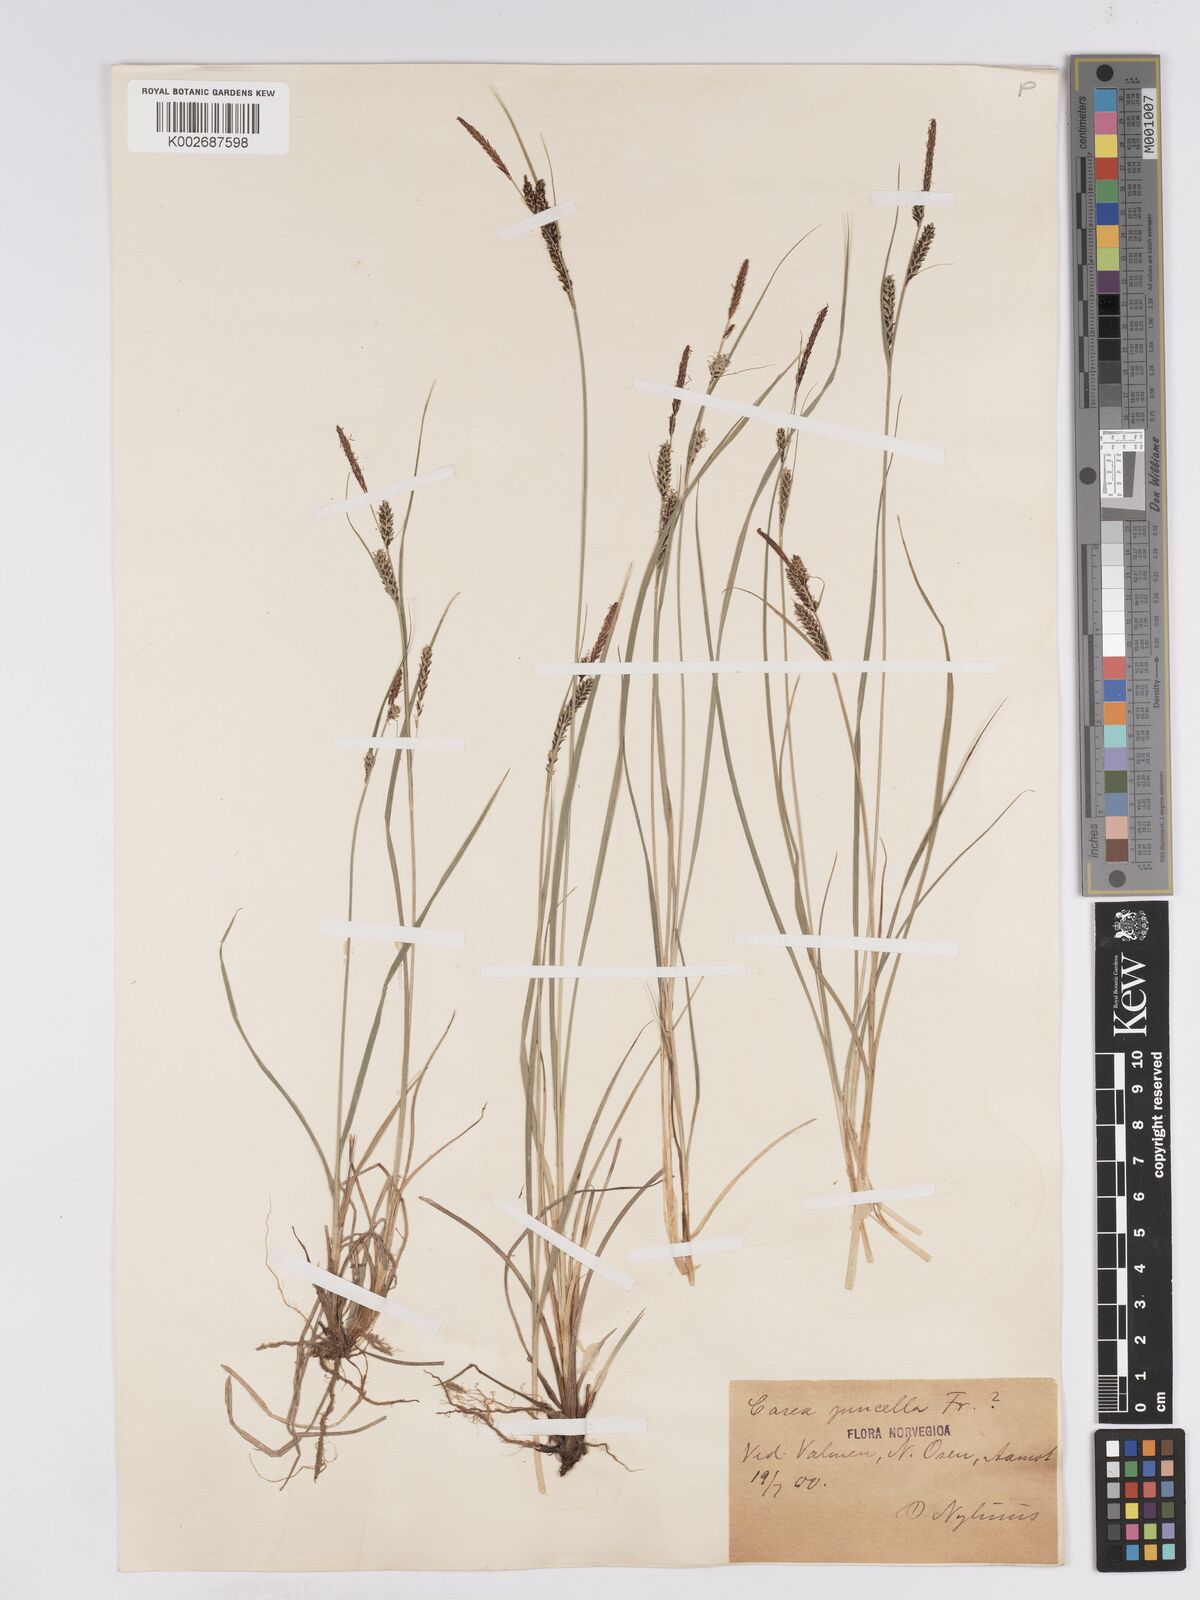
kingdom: Plantae
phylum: Tracheophyta
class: Liliopsida
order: Poales
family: Cyperaceae
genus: Carex
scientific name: Carex
